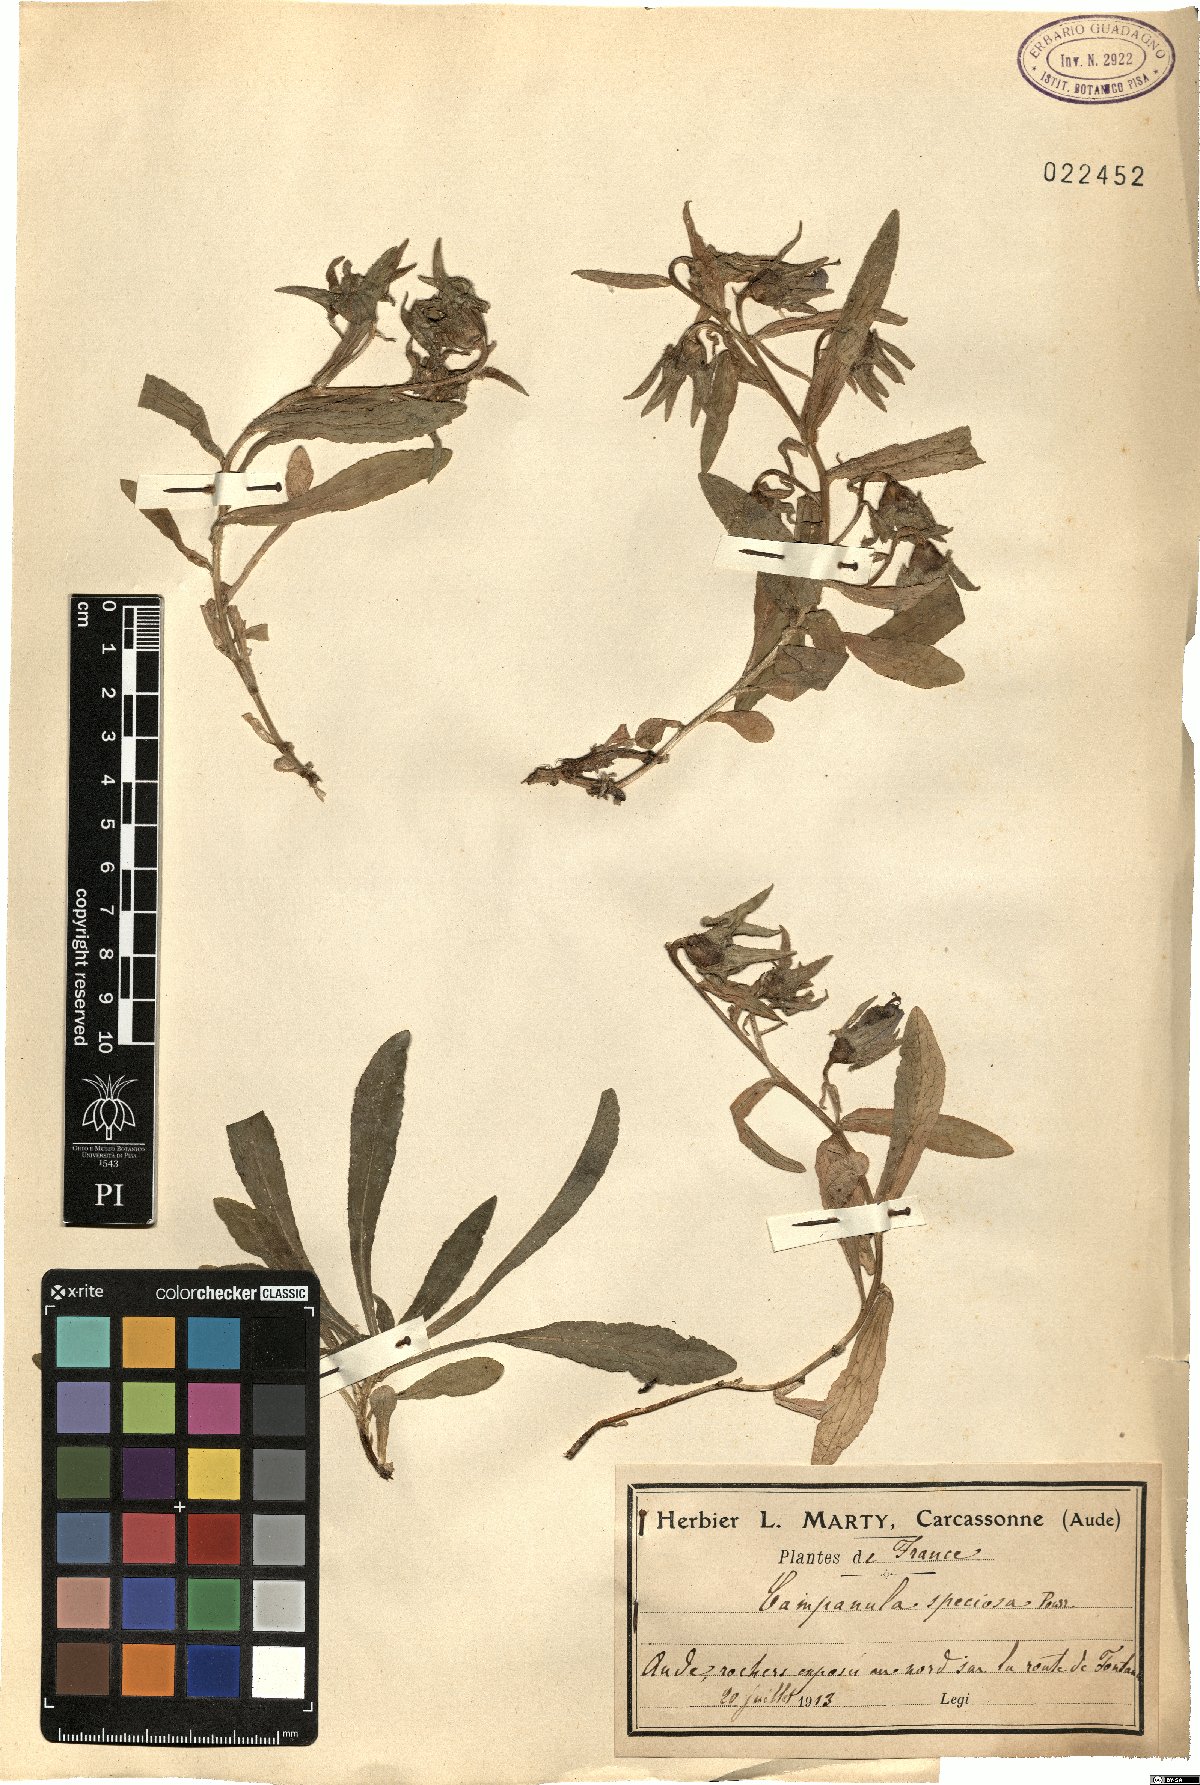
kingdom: Plantae
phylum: Tracheophyta
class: Magnoliopsida
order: Asterales
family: Campanulaceae
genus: Campanula
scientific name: Campanula speciosa
